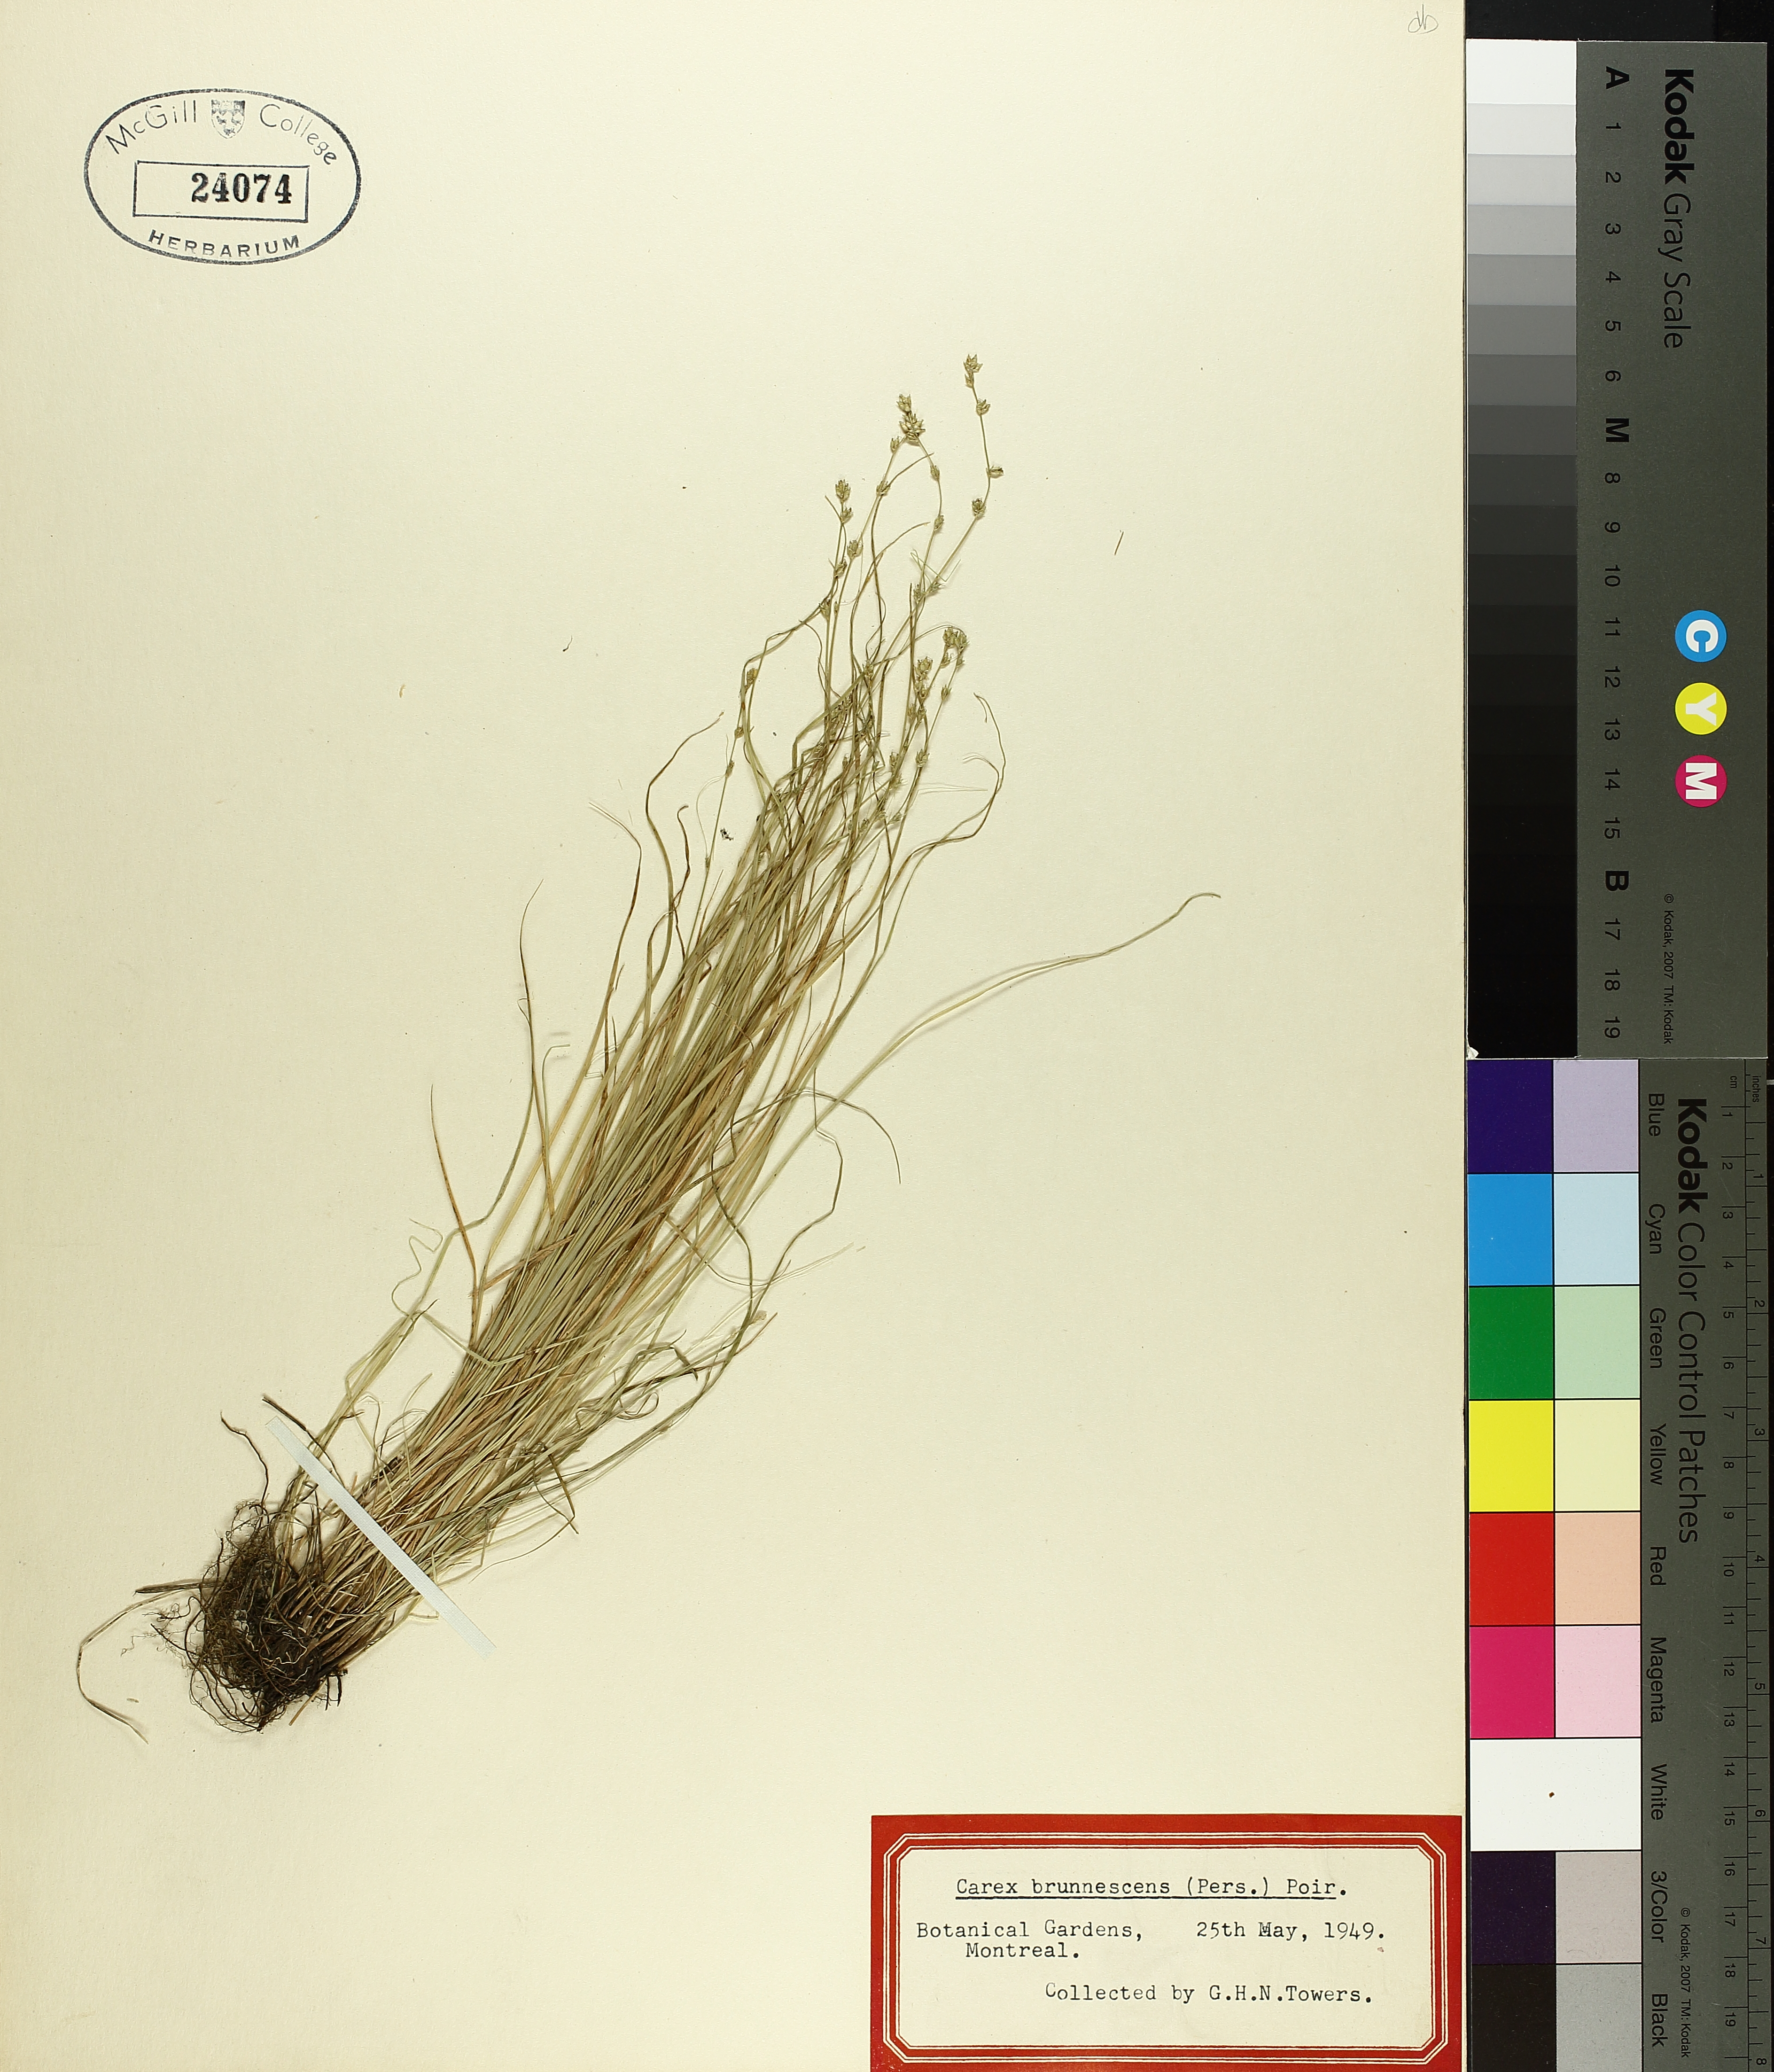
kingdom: Plantae
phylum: Tracheophyta
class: Liliopsida
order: Poales
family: Cyperaceae
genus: Carex
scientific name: Carex brunnescens
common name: Brown sedge
